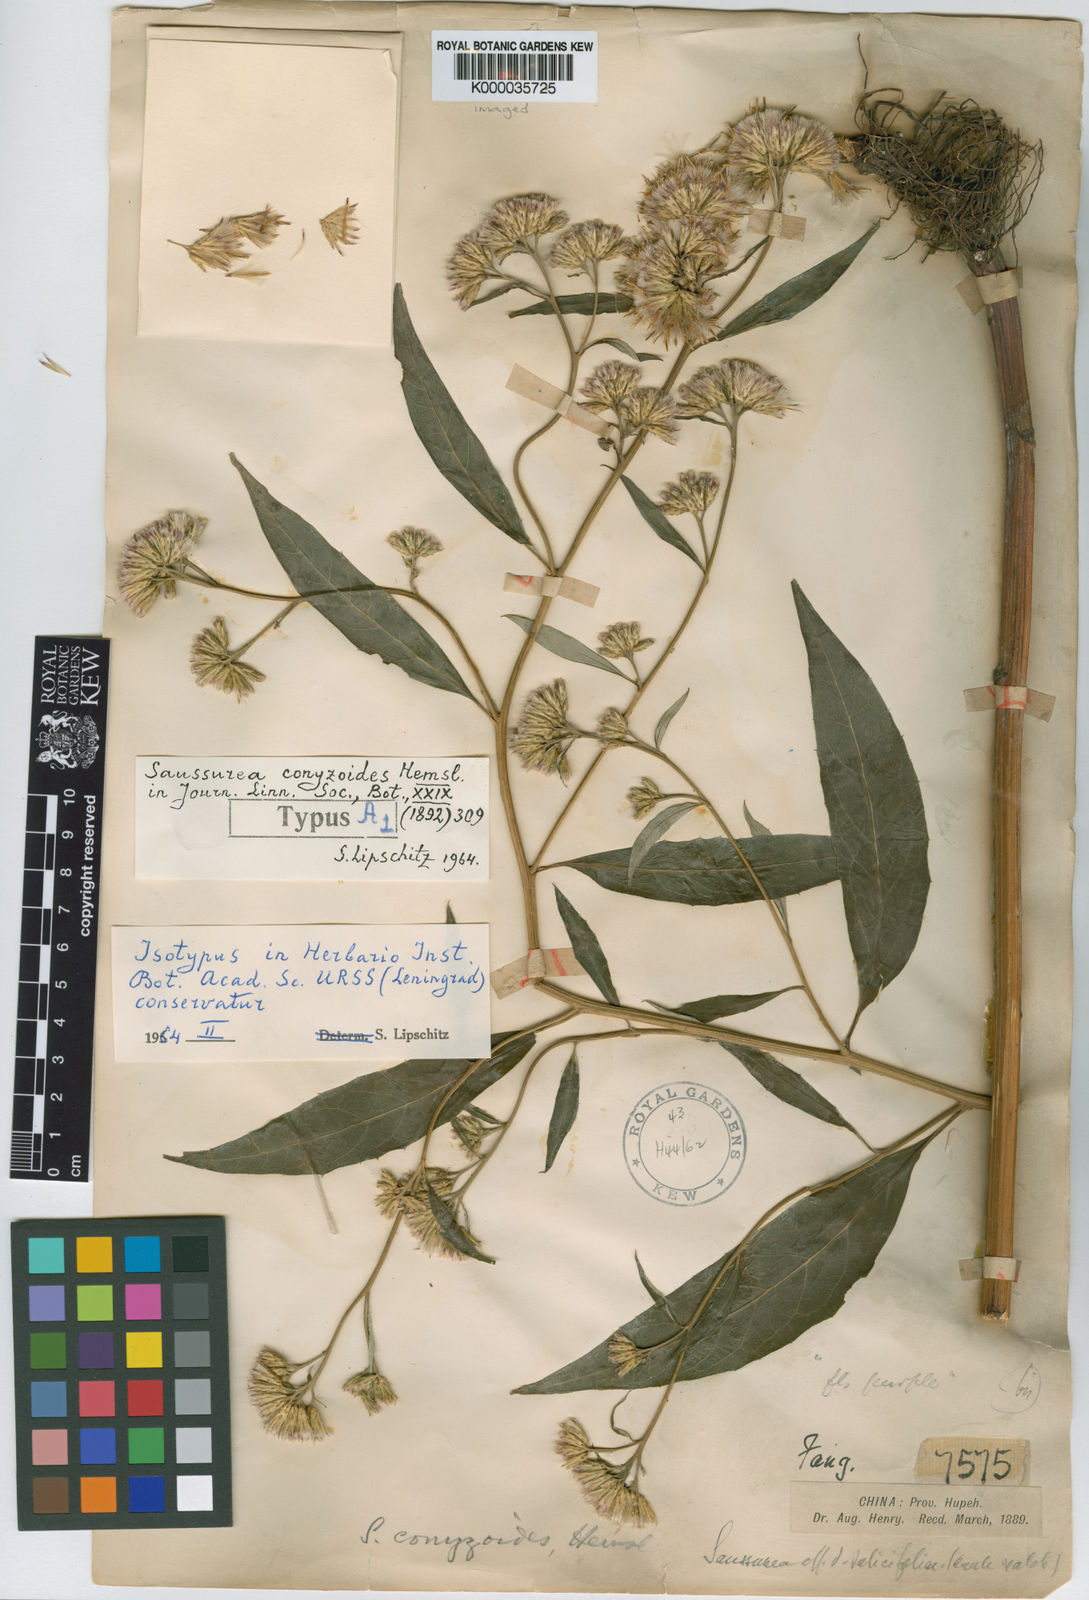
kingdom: Plantae
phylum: Tracheophyta
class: Magnoliopsida
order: Asterales
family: Asteraceae
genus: Saussurea
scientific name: Saussurea conyzoides
